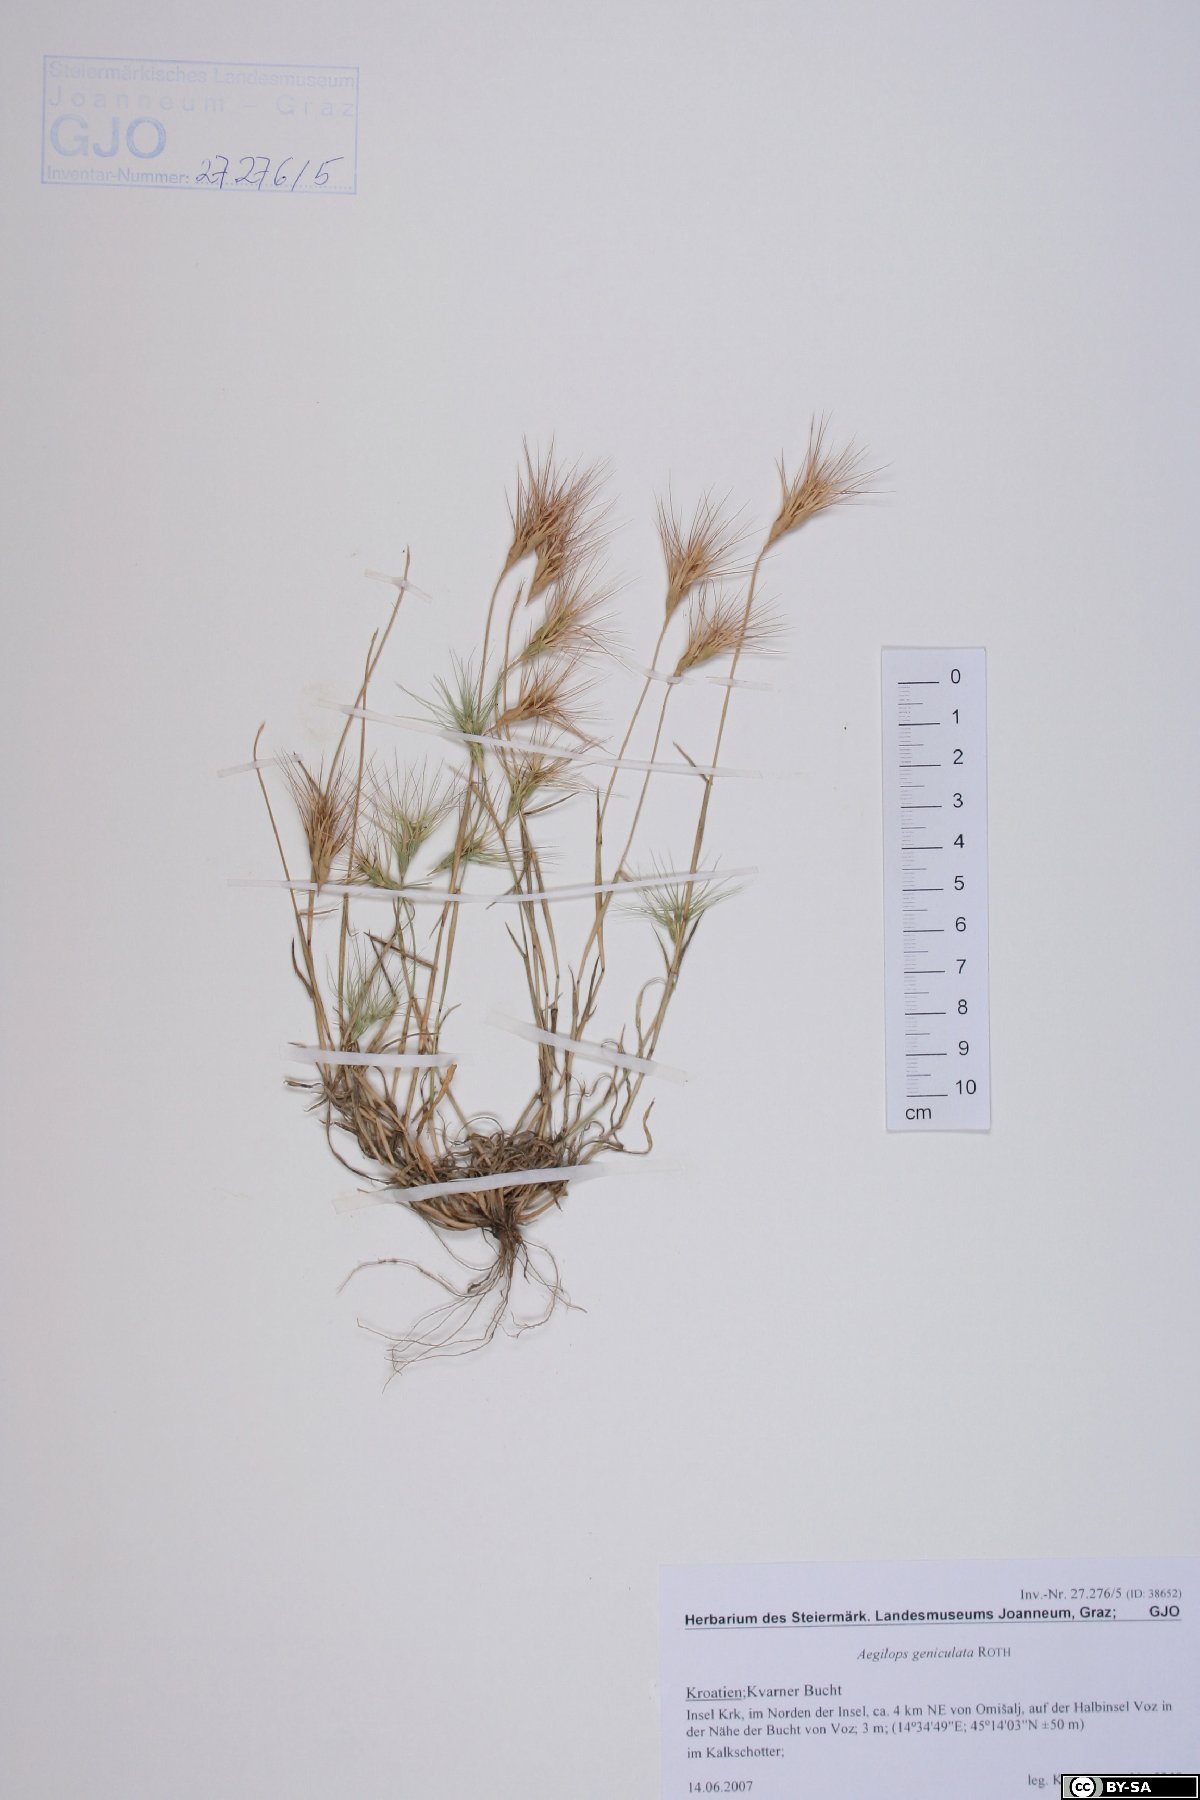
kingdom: Plantae
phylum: Tracheophyta
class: Liliopsida
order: Poales
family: Poaceae
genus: Aegilops
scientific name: Aegilops geniculata
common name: Ovate goat grass
